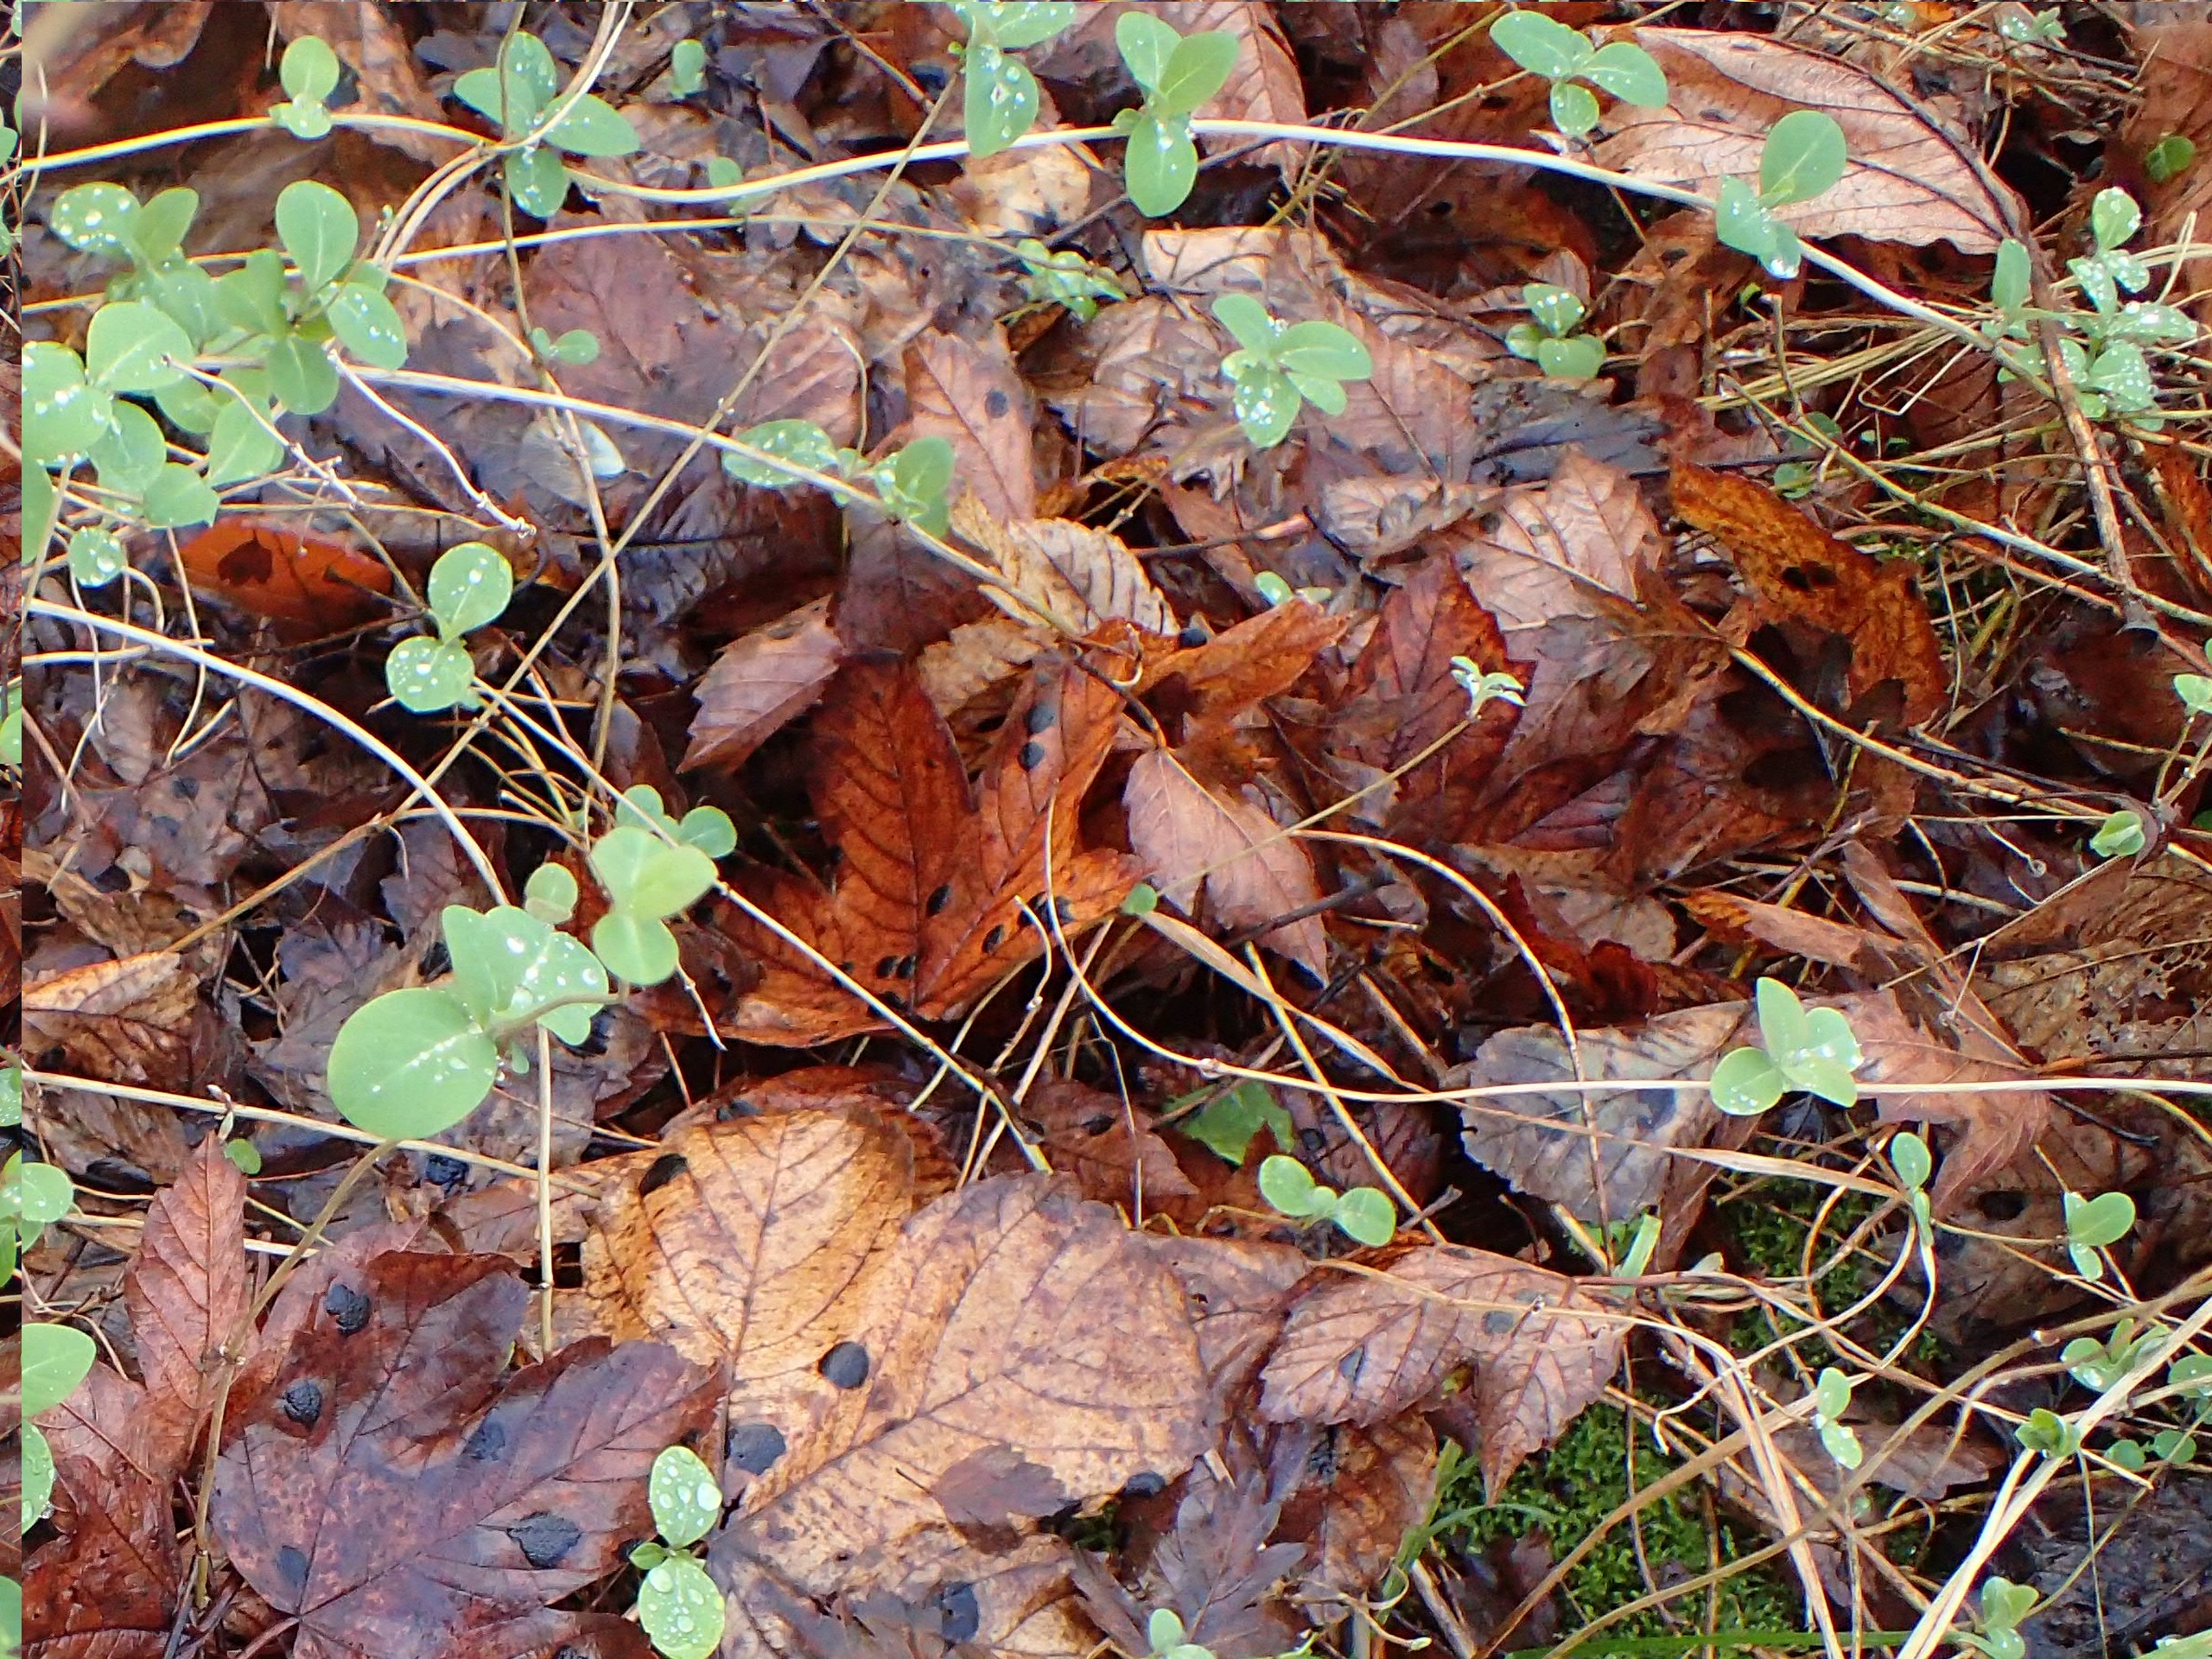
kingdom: Plantae
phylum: Tracheophyta
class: Magnoliopsida
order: Dipsacales
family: Caprifoliaceae
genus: Lonicera
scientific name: Lonicera periclymenum
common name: Almindelig gedeblad
